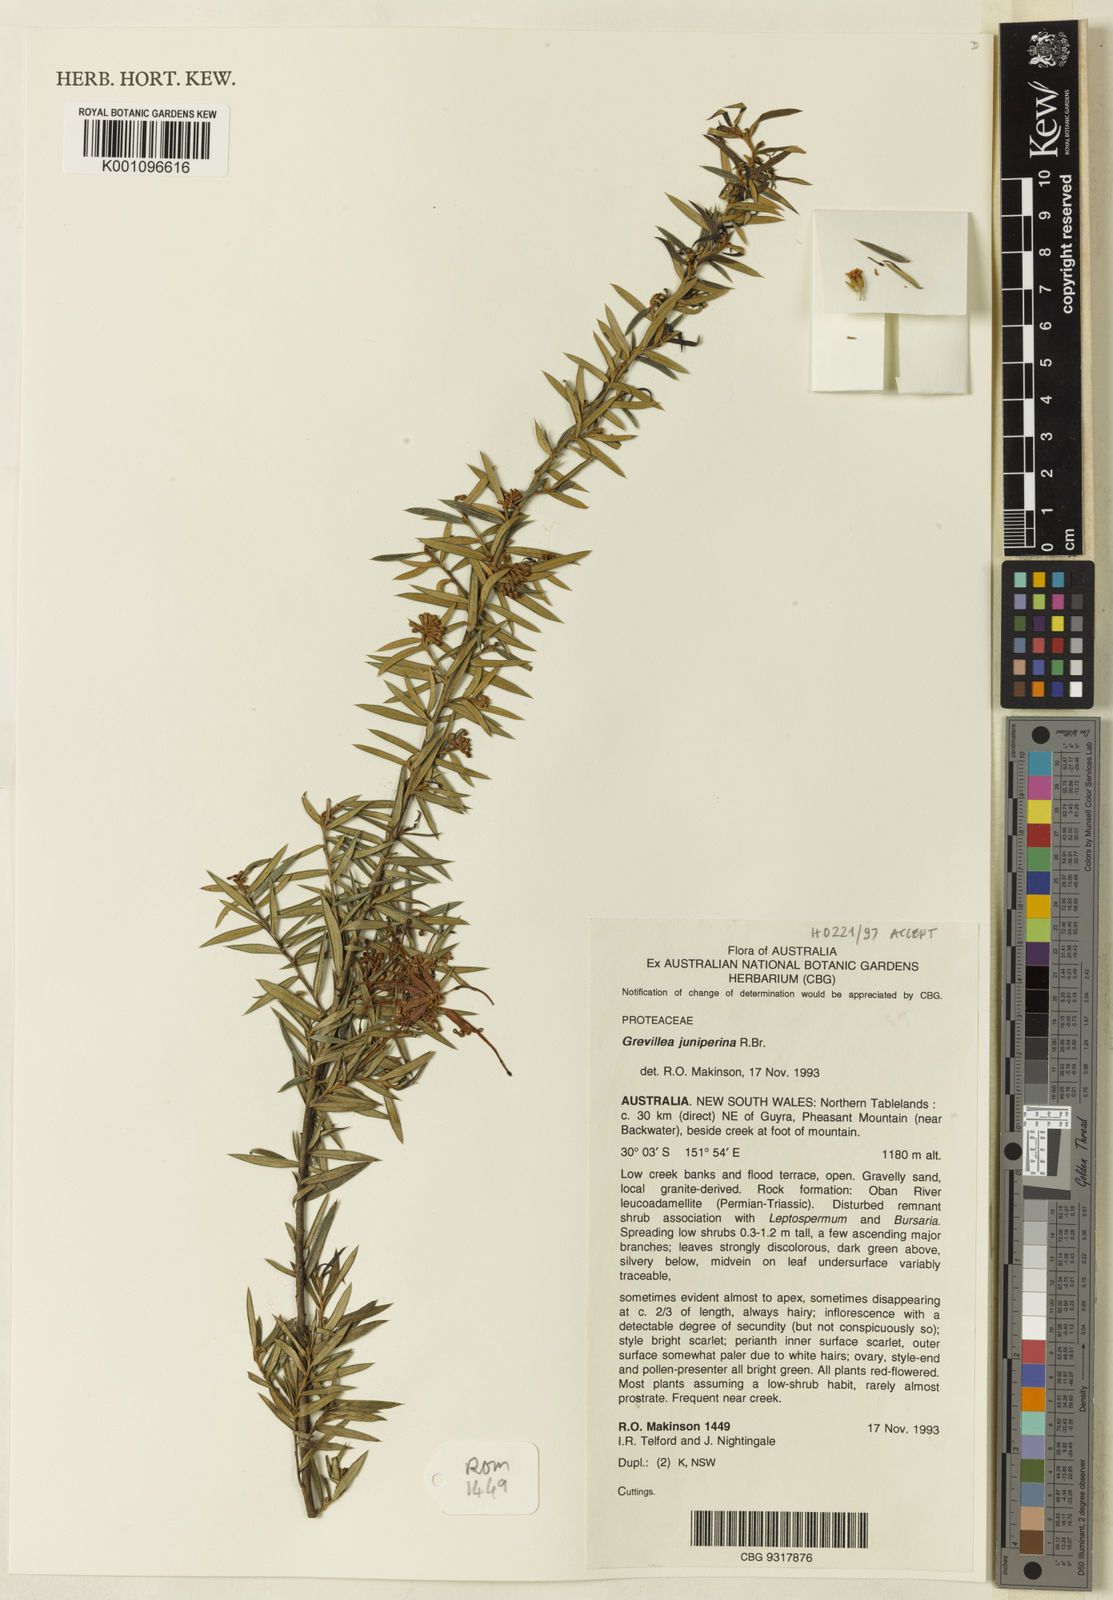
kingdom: Plantae
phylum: Tracheophyta
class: Magnoliopsida
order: Proteales
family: Proteaceae
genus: Grevillea
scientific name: Grevillea juniperina
